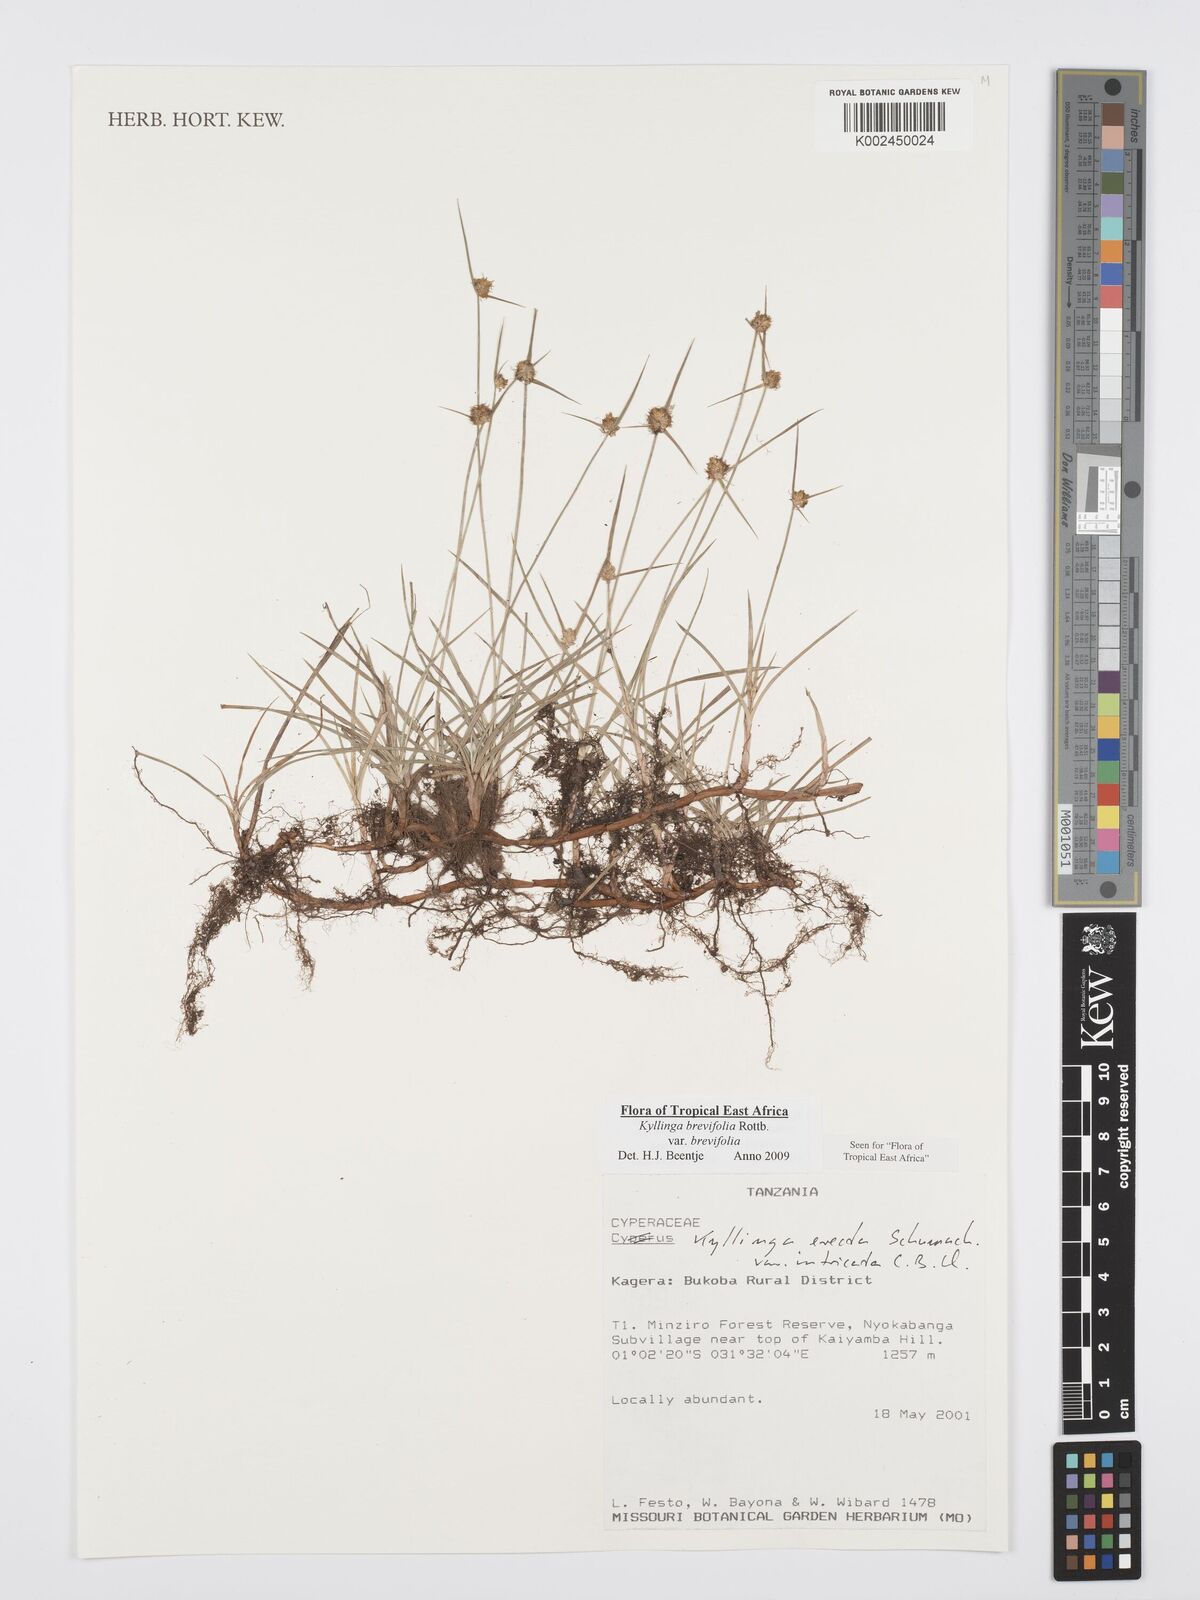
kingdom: Plantae
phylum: Tracheophyta
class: Liliopsida
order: Poales
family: Cyperaceae
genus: Cyperus
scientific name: Cyperus brevifolius
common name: Globe kyllinga
